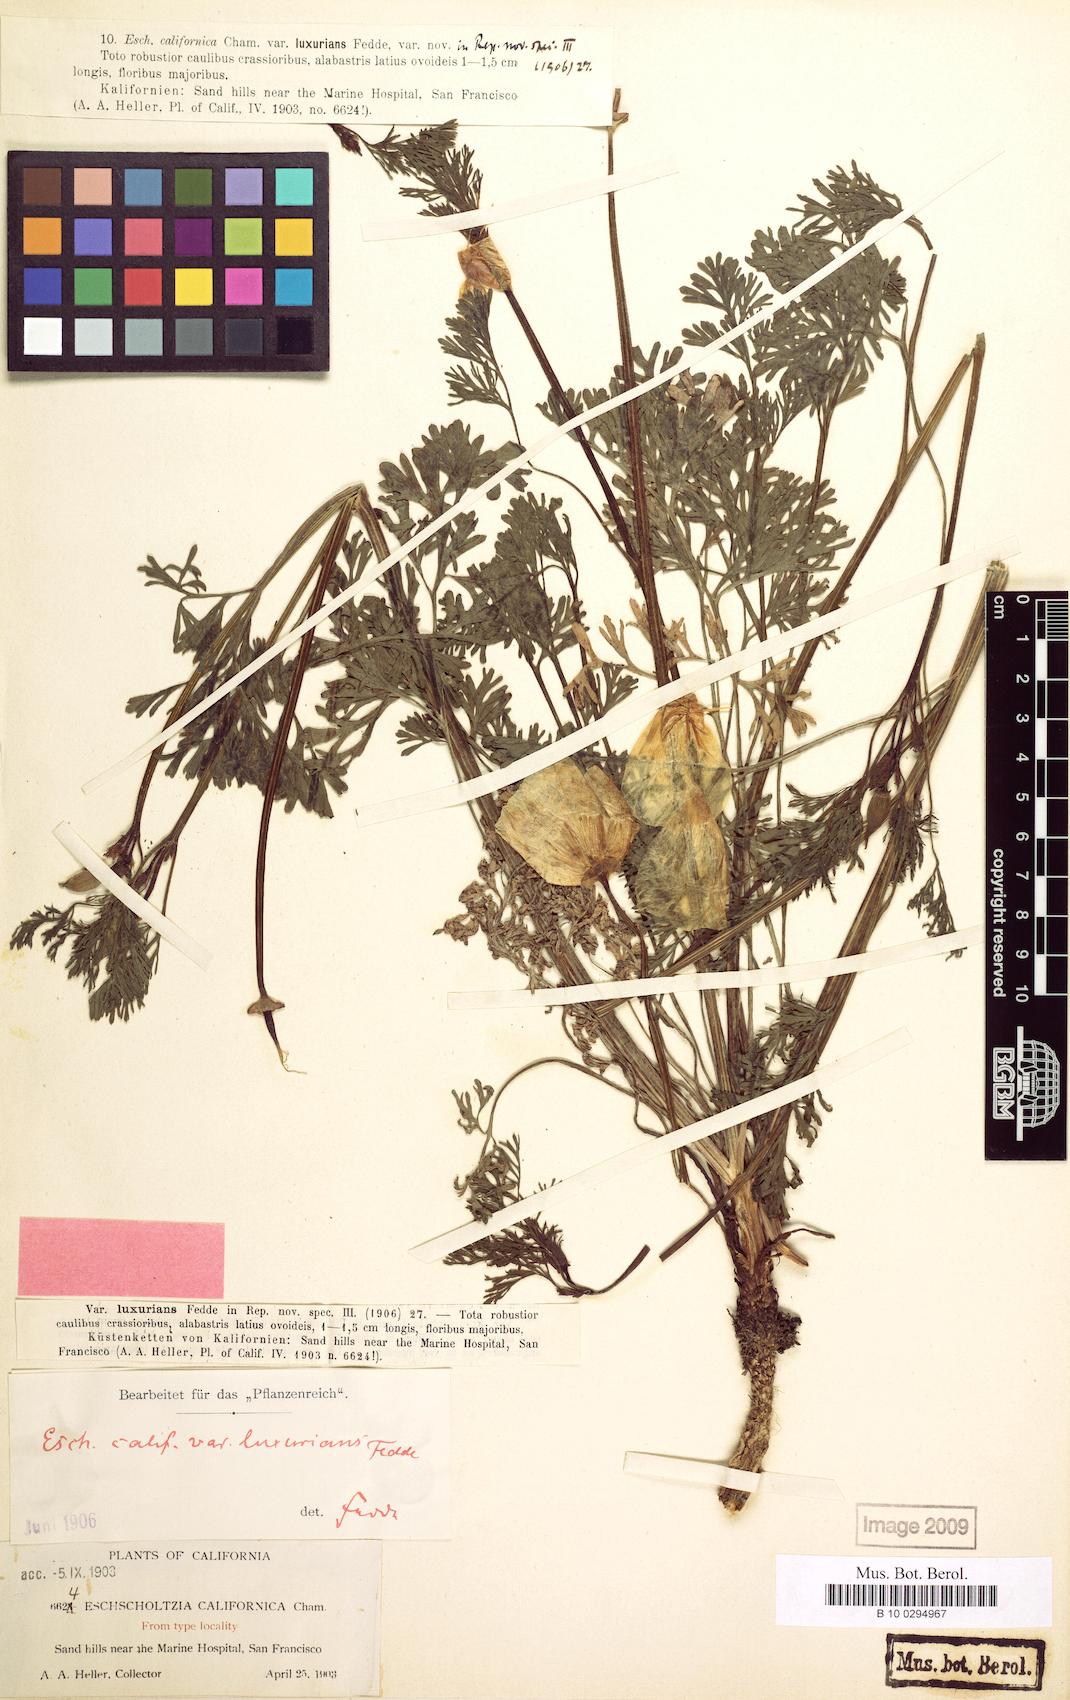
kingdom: Plantae
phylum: Tracheophyta
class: Magnoliopsida
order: Ranunculales
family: Papaveraceae
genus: Eschscholzia
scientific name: Eschscholzia californica
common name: California poppy
